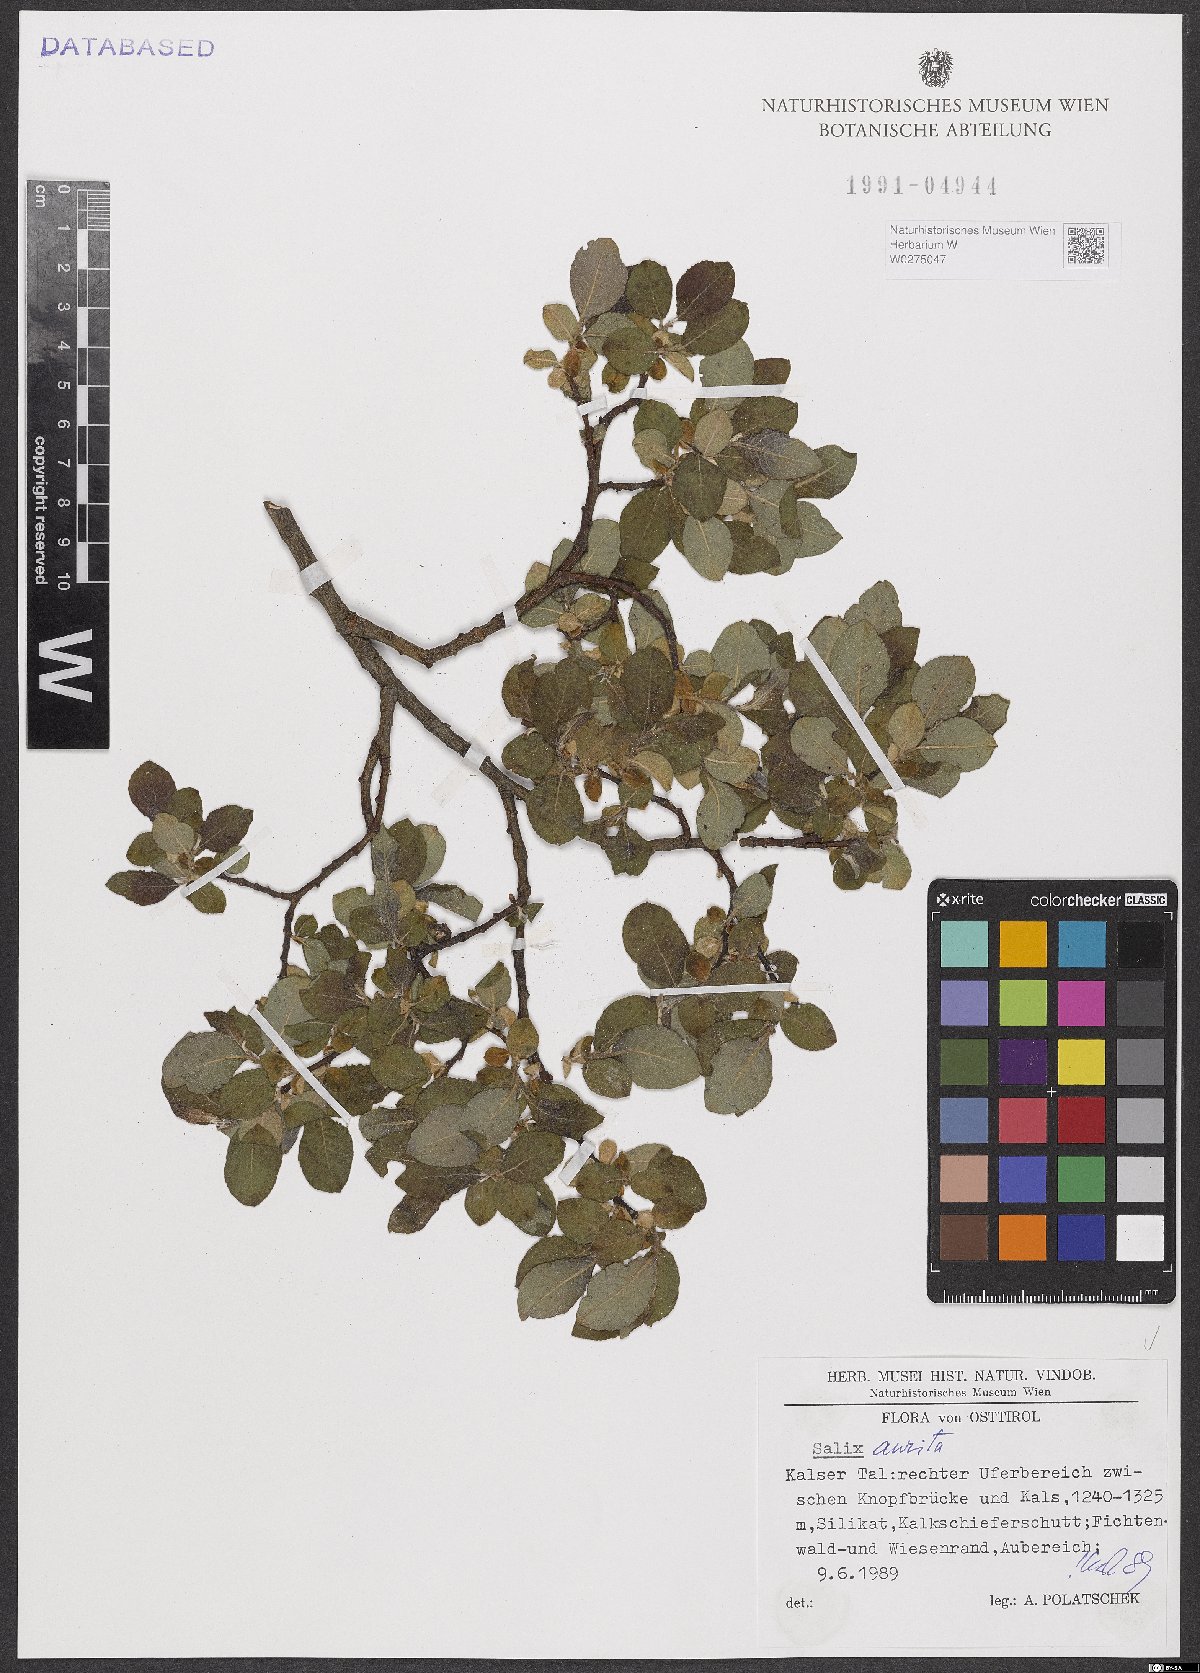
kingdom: Plantae
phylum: Tracheophyta
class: Magnoliopsida
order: Malpighiales
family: Salicaceae
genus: Salix
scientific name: Salix aurita
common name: Eared willow
